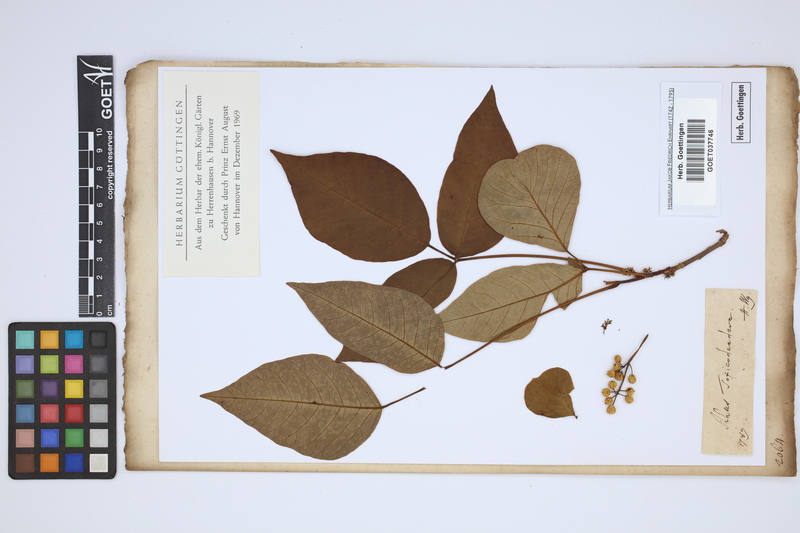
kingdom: Plantae
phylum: Tracheophyta
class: Magnoliopsida
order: Sapindales
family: Anacardiaceae
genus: Toxicodendron
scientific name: Toxicodendron
